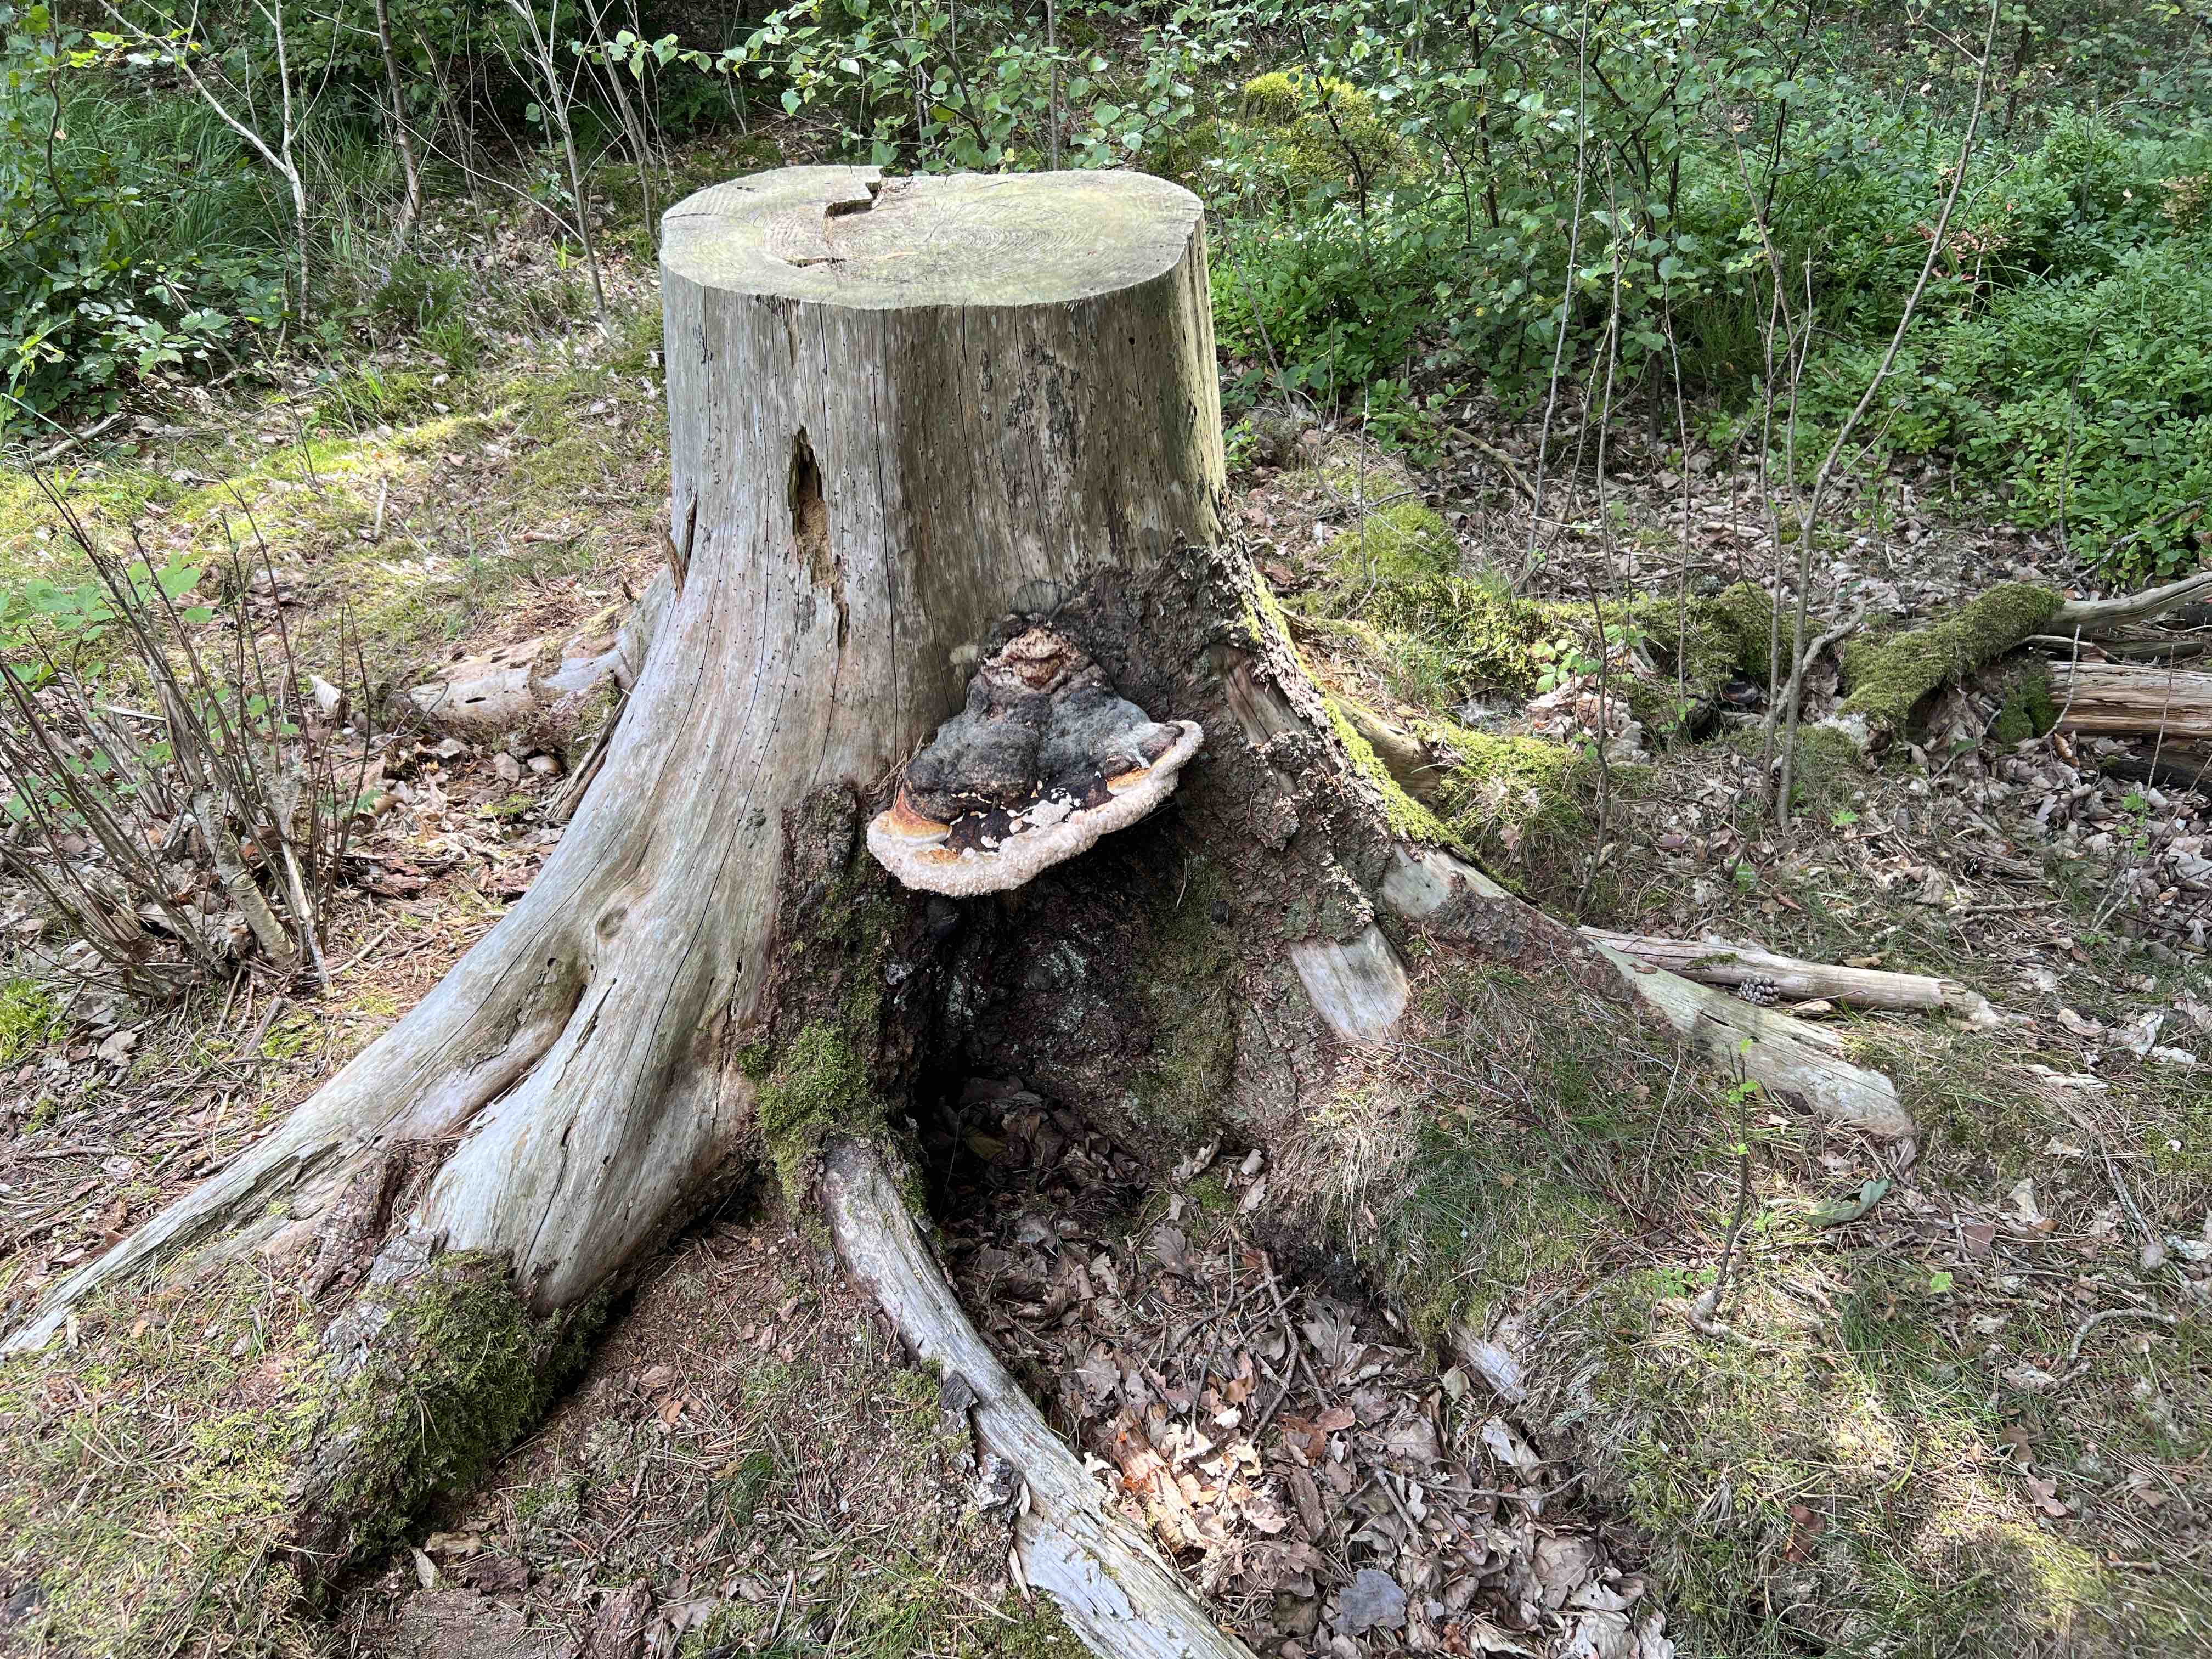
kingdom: Fungi
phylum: Basidiomycota
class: Agaricomycetes
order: Polyporales
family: Fomitopsidaceae
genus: Fomitopsis
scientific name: Fomitopsis pinicola
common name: randbæltet hovporesvamp
